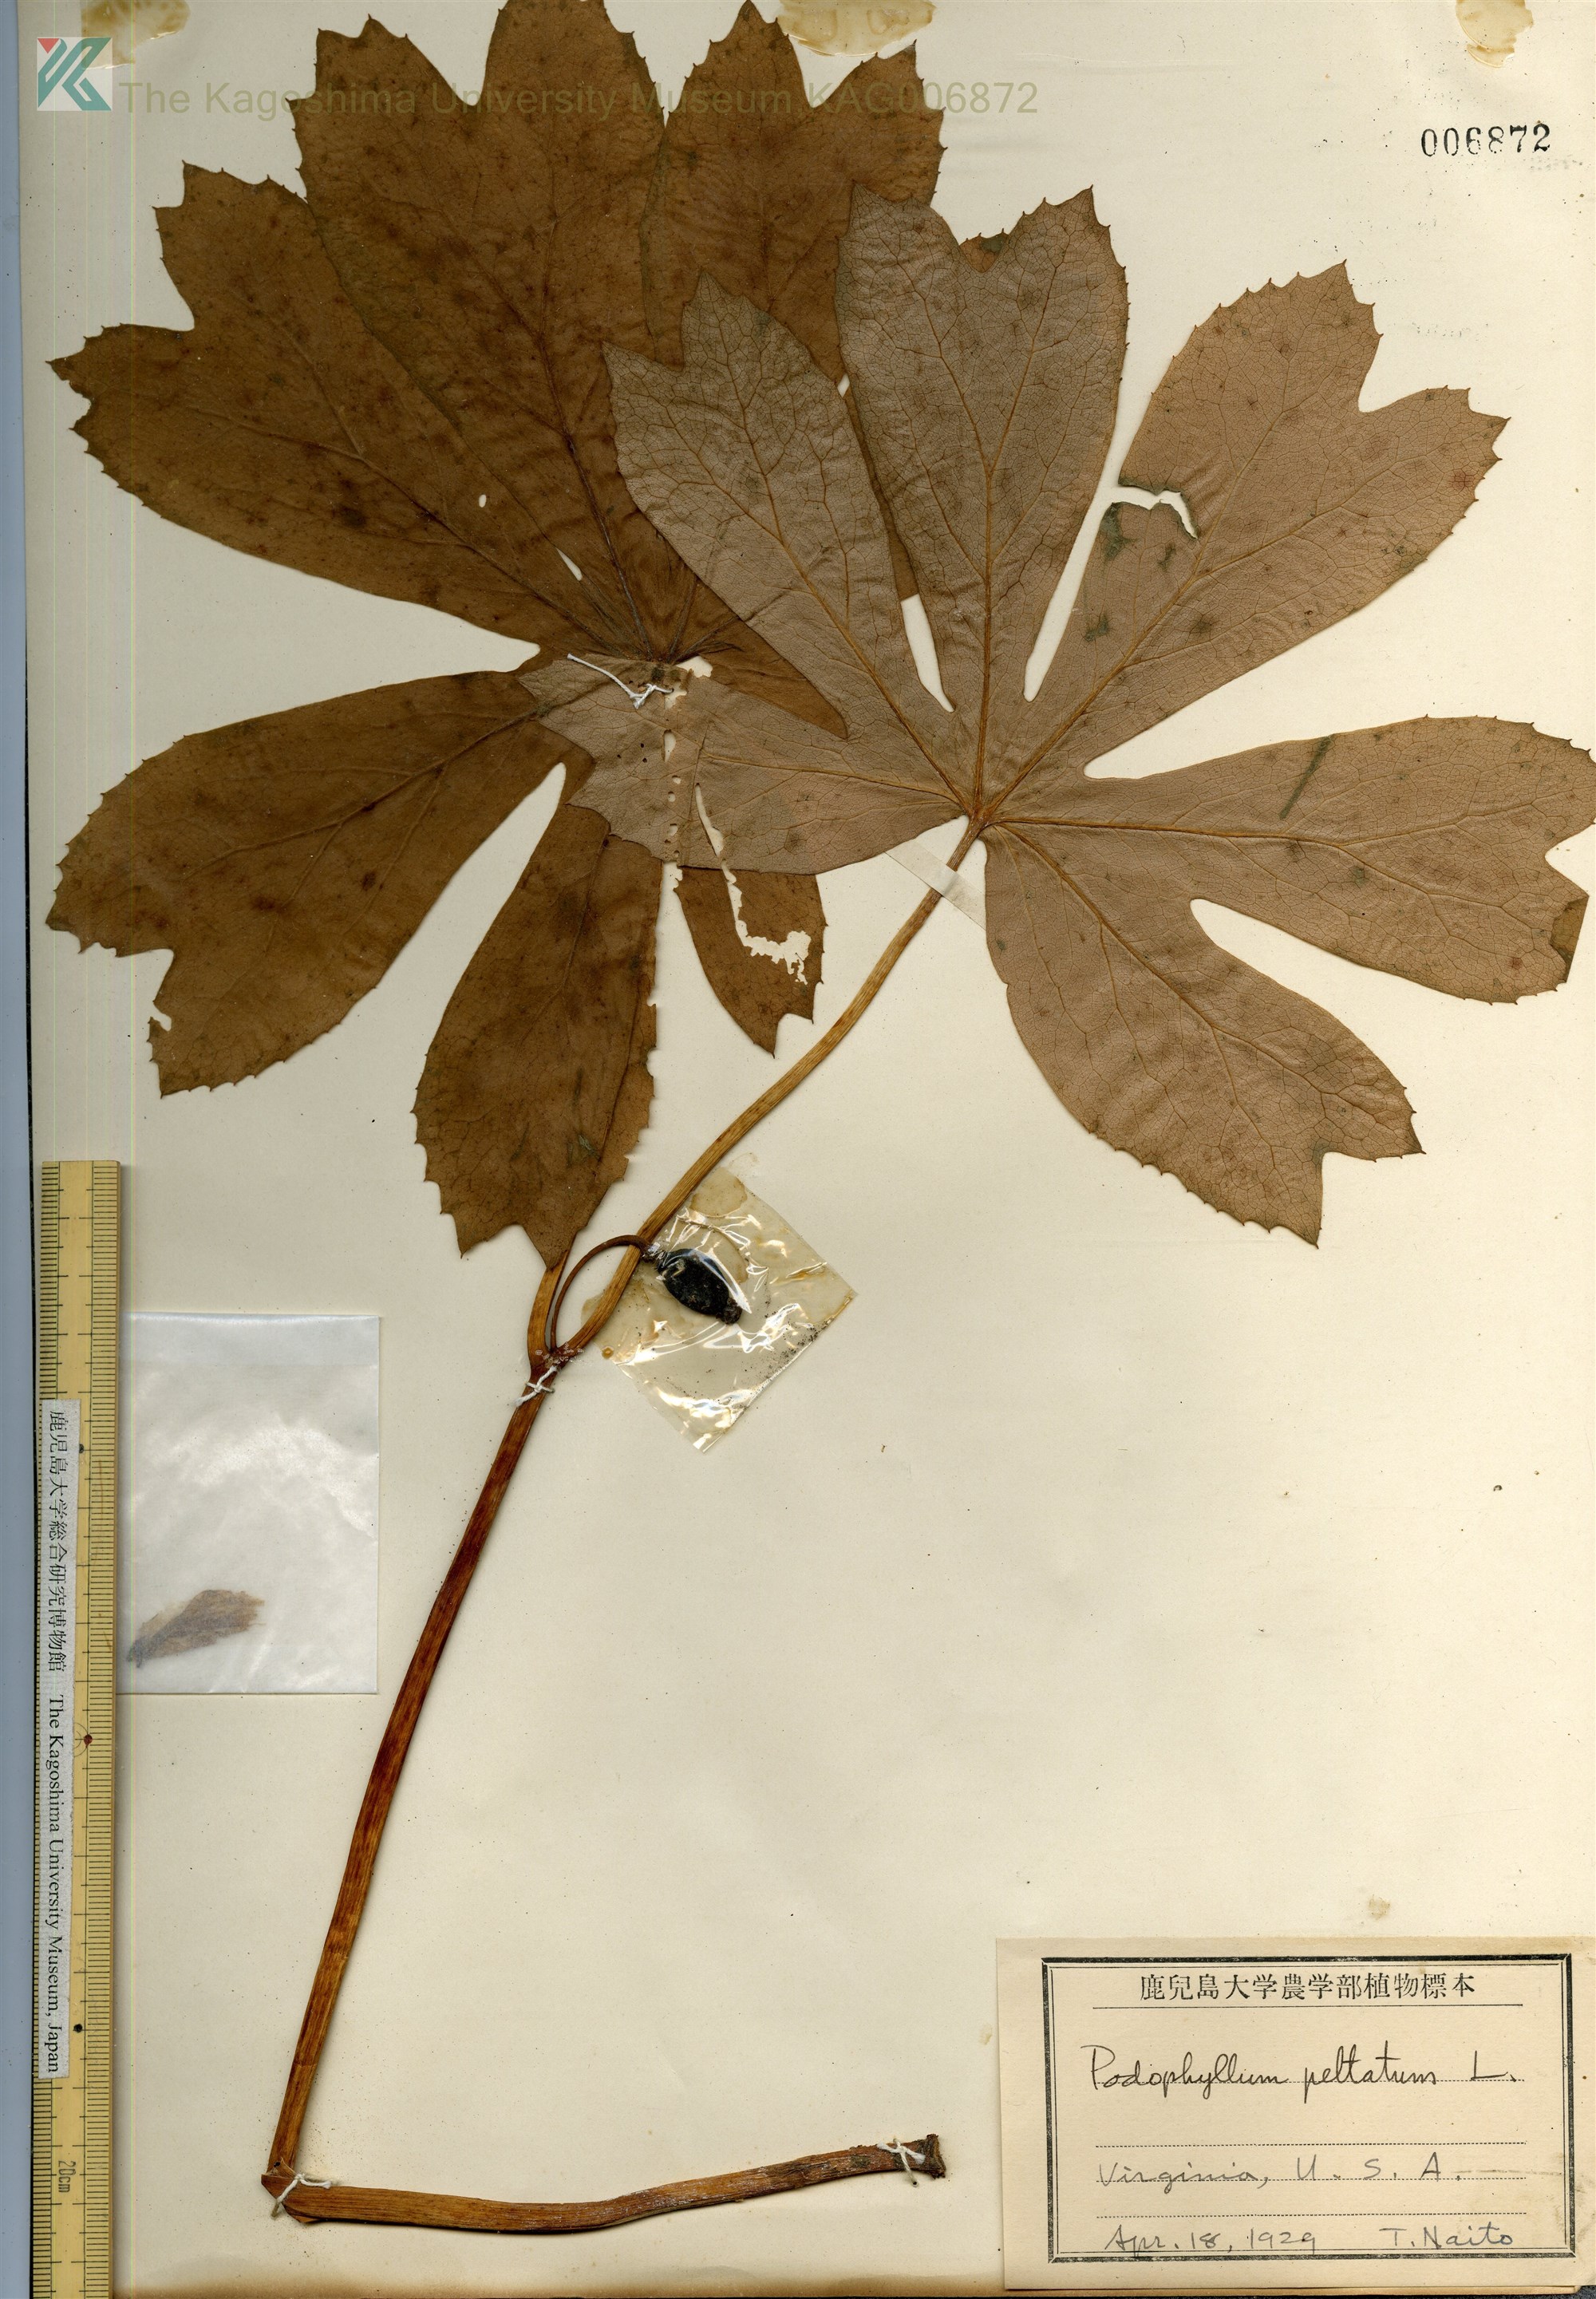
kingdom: Plantae
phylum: Tracheophyta
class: Magnoliopsida
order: Ranunculales
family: Berberidaceae
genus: Podophyllum
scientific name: Podophyllum peltatum
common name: Wild mandrake
